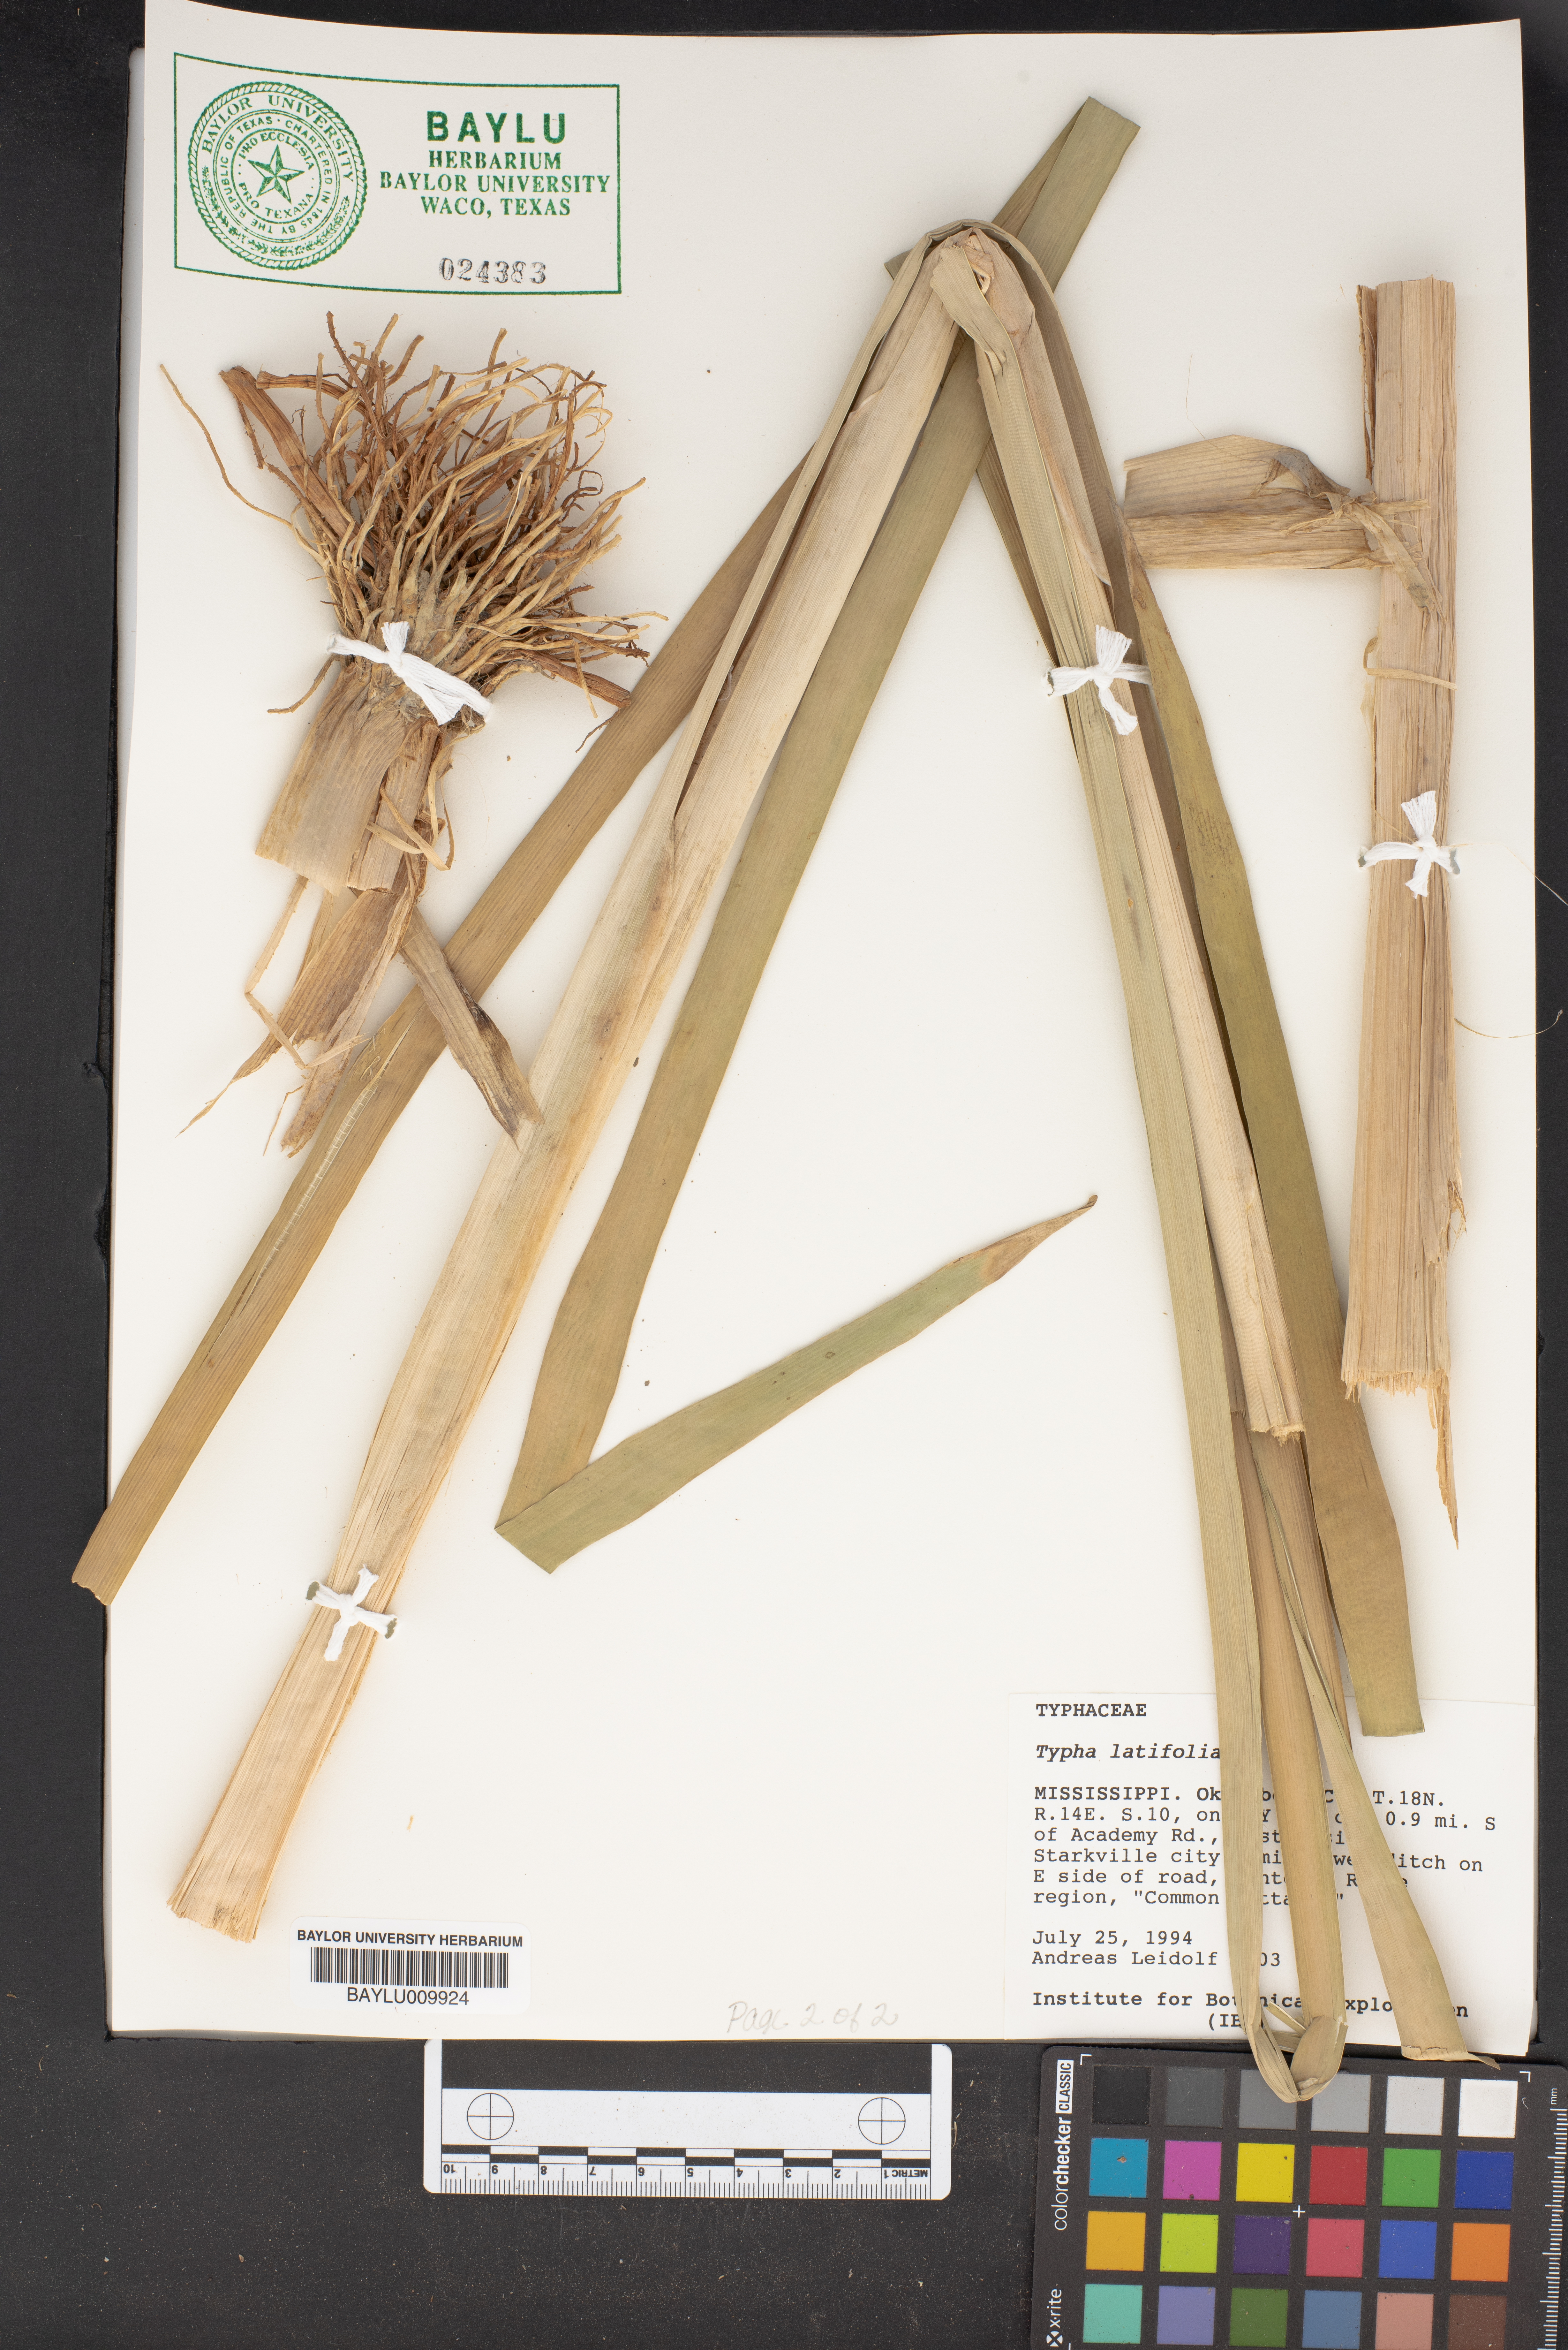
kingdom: Plantae
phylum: Tracheophyta
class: Liliopsida
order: Poales
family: Typhaceae
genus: Typha
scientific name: Typha latifolia
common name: Broadleaf cattail
